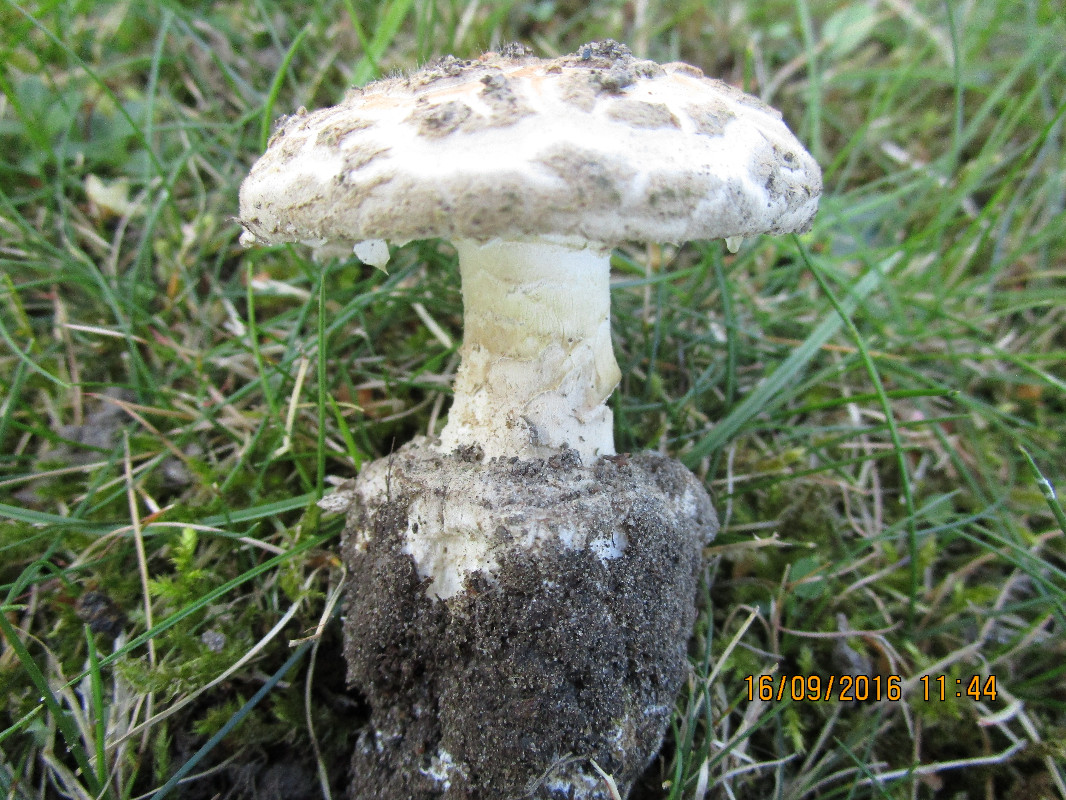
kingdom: Fungi
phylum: Basidiomycota
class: Agaricomycetes
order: Agaricales
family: Amanitaceae
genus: Amanita
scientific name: Amanita
